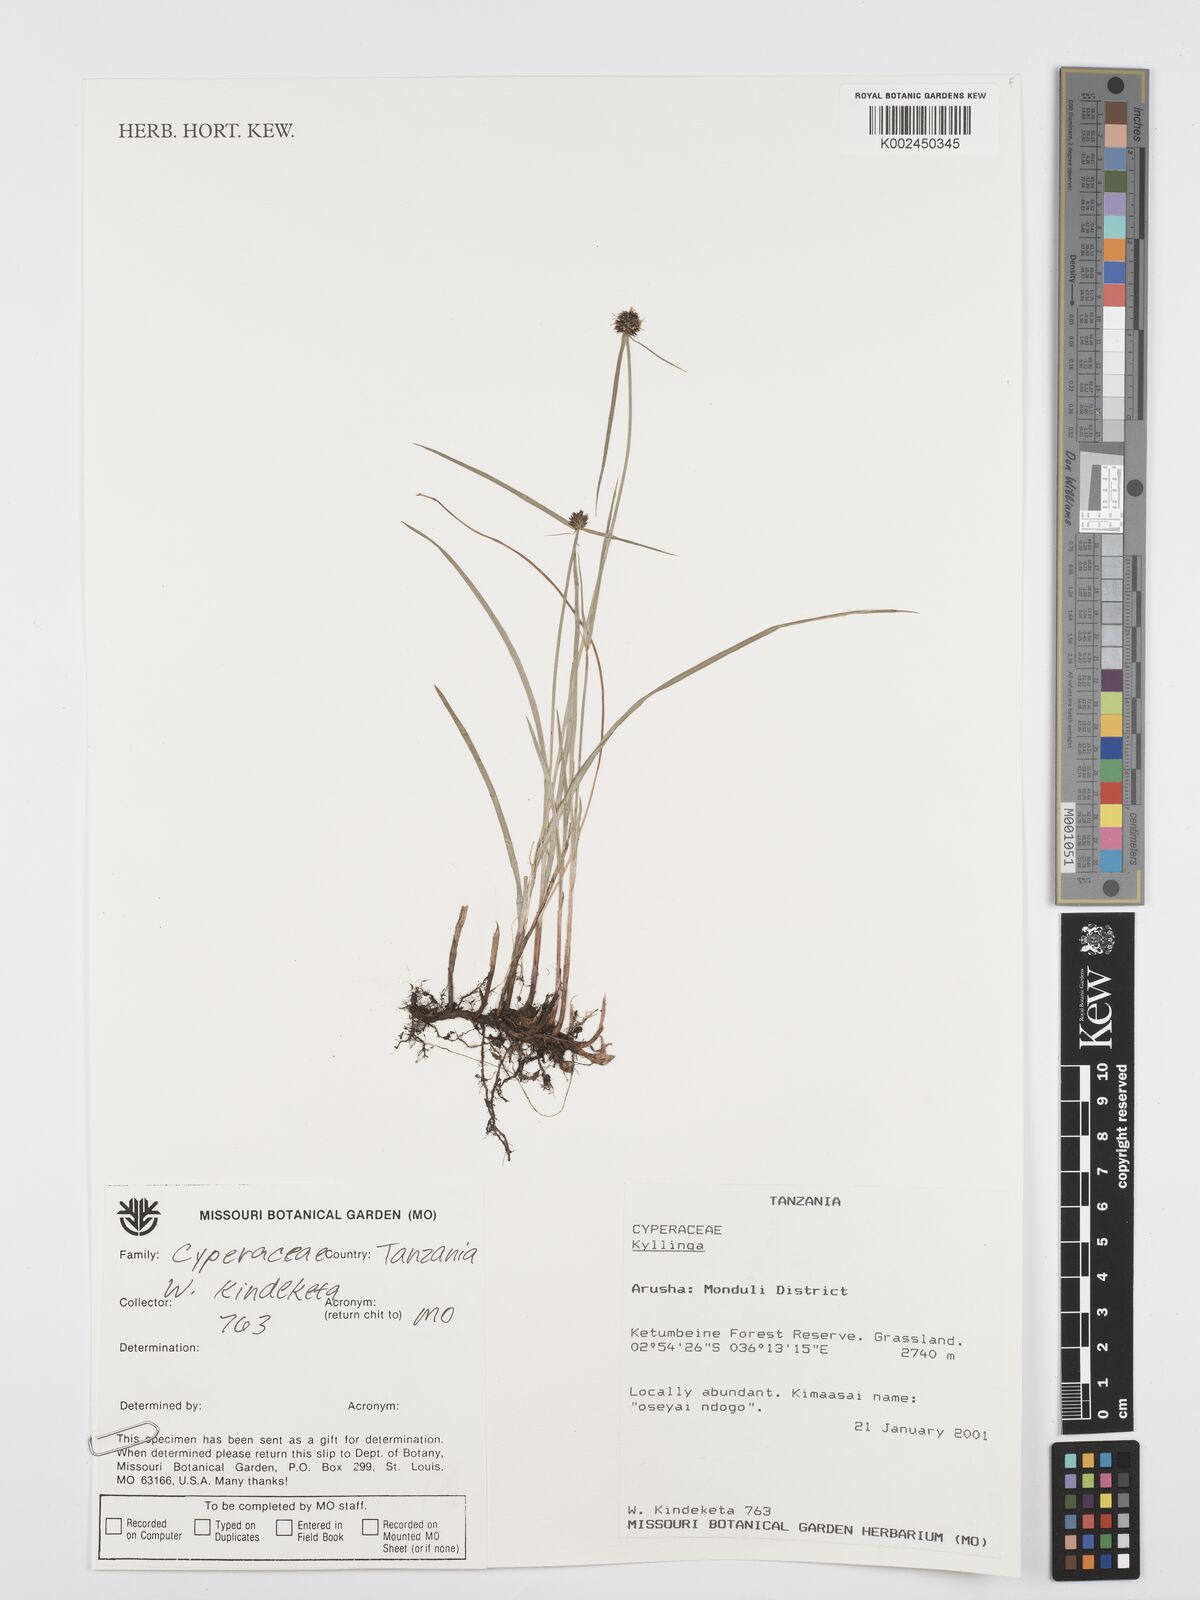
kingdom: Plantae
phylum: Tracheophyta
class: Liliopsida
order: Poales
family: Cyperaceae
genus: Cyperus
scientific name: Cyperus
